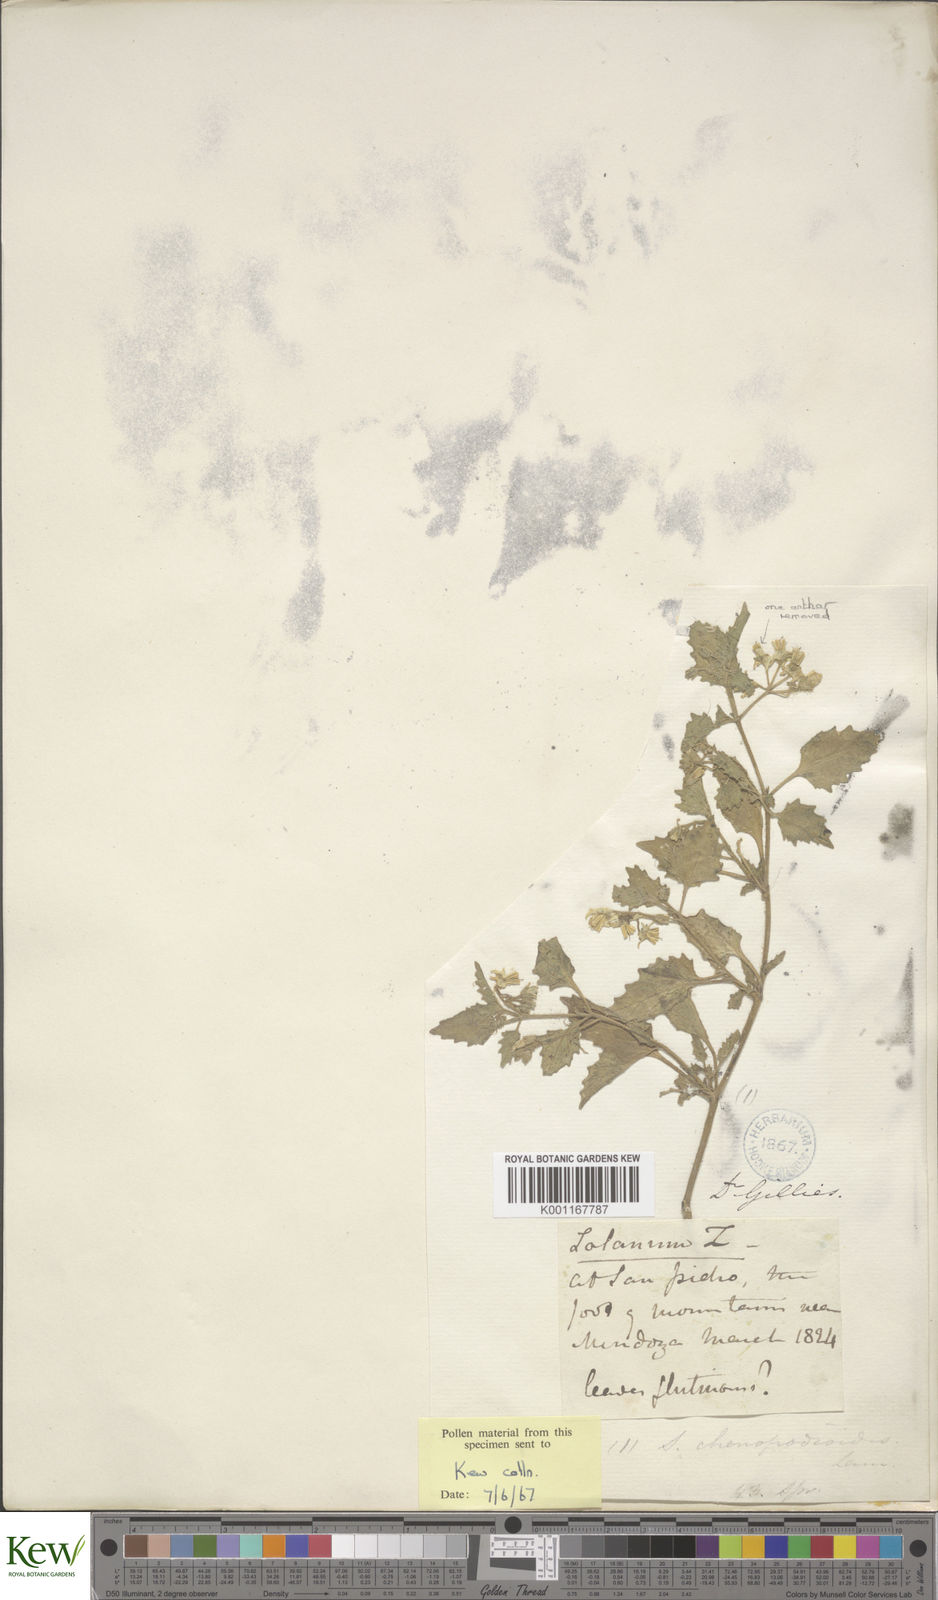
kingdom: Plantae
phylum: Tracheophyta
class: Magnoliopsida
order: Solanales
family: Solanaceae
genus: Solanum
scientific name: Solanum tweedieanum
